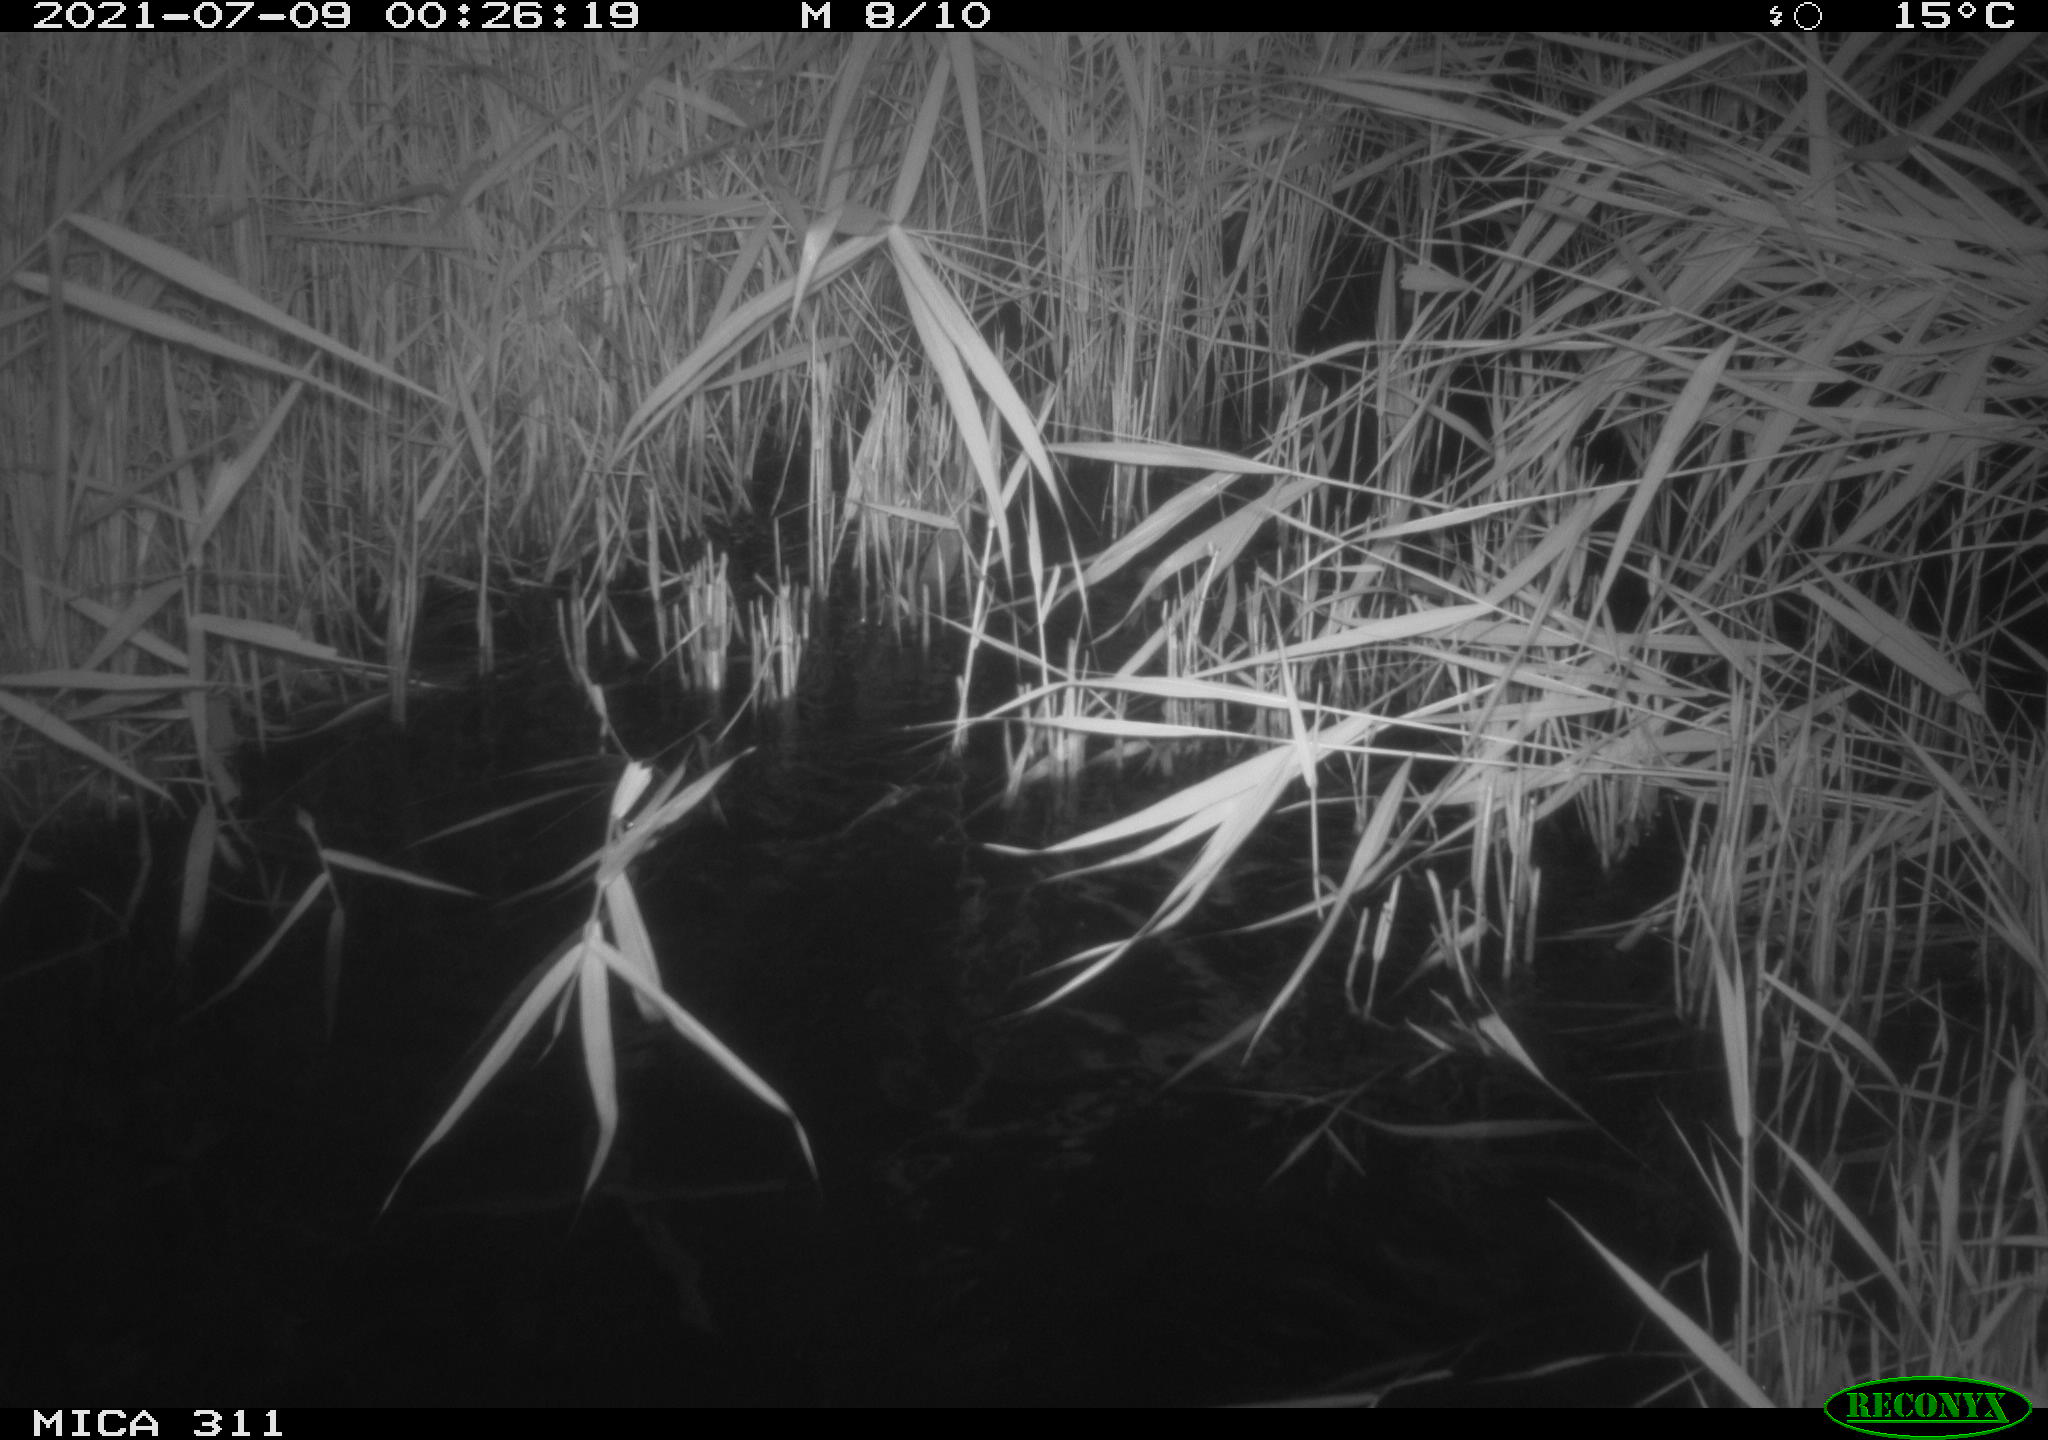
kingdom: Animalia
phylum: Chordata
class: Mammalia
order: Rodentia
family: Muridae
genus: Rattus
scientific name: Rattus norvegicus
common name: Brown rat
